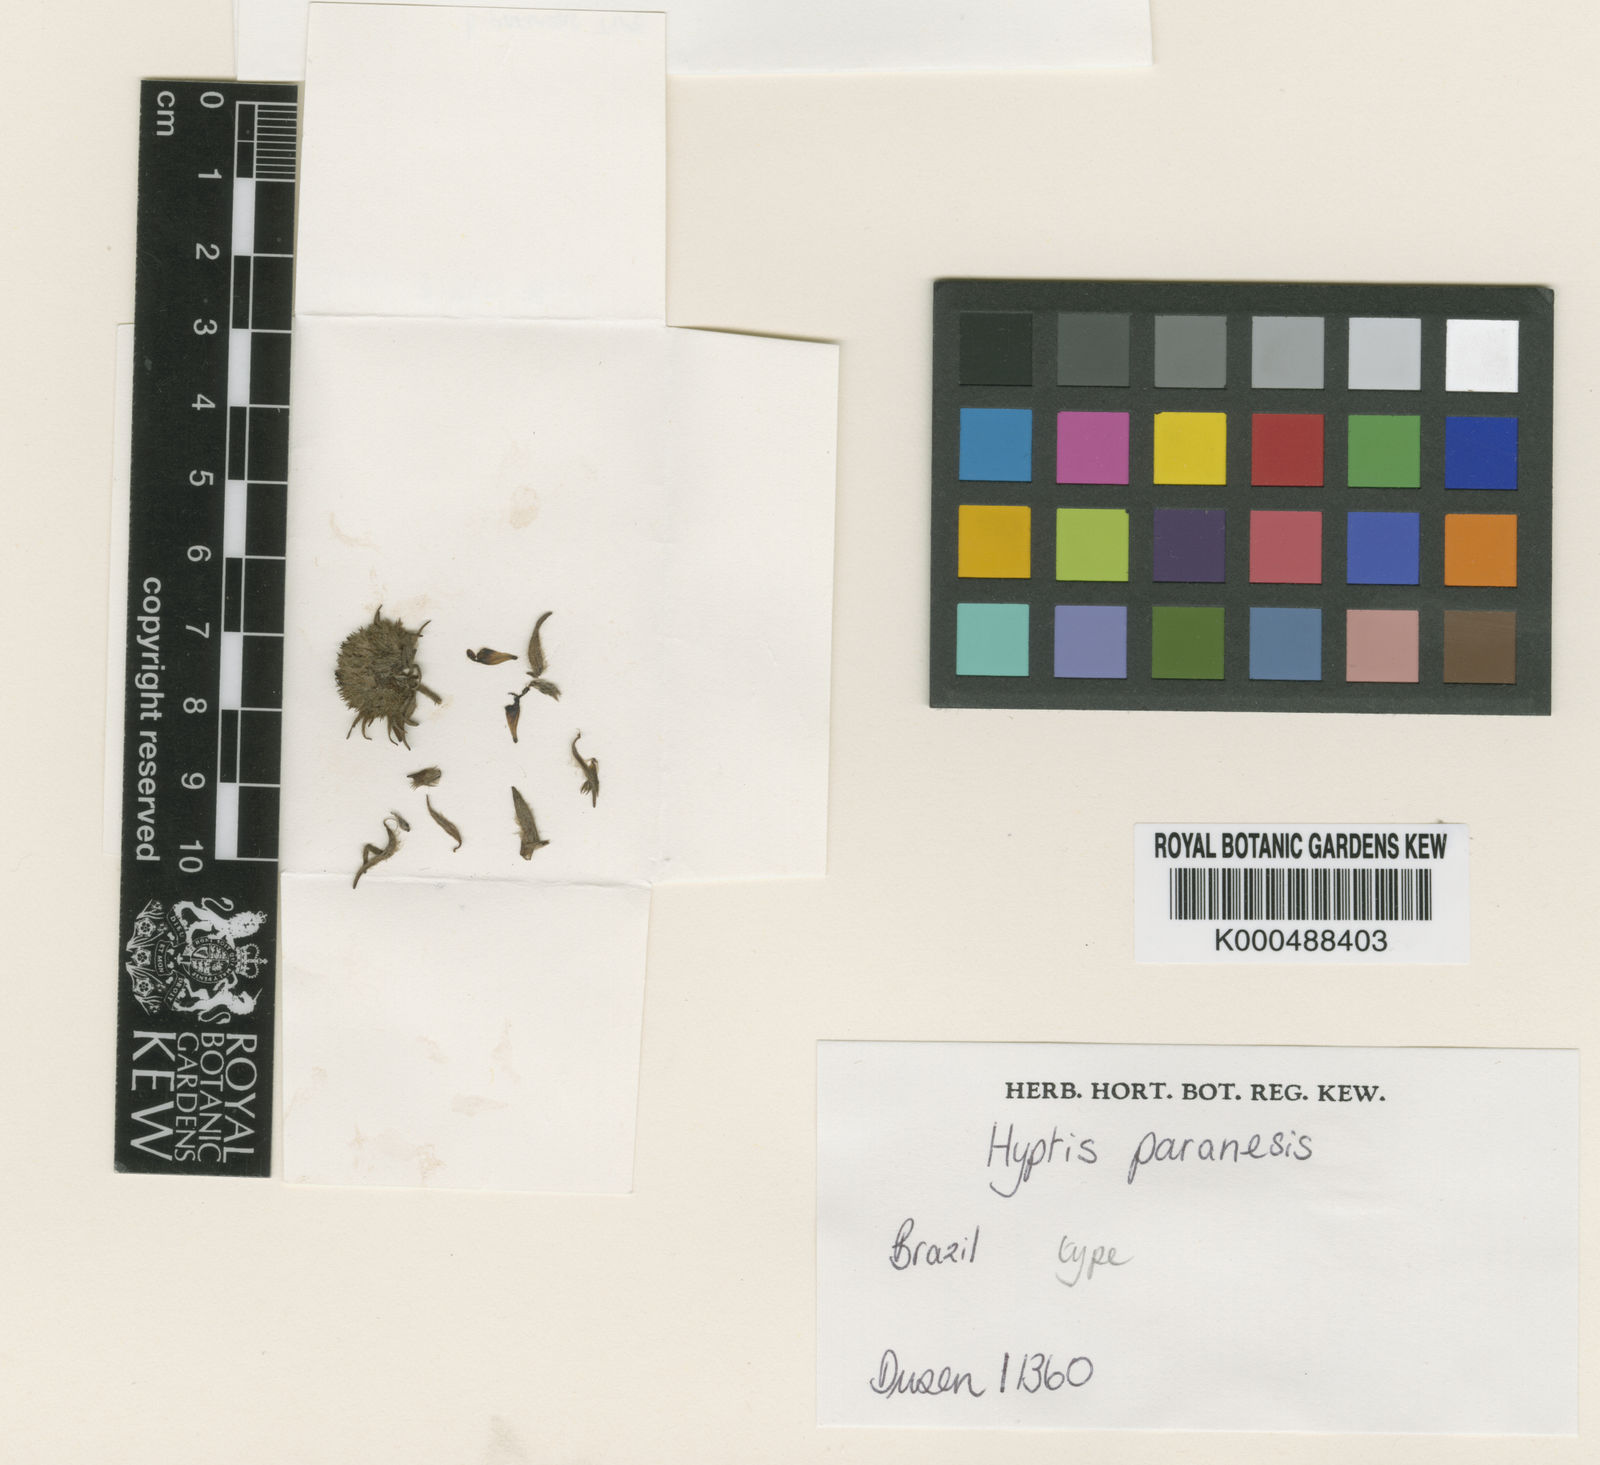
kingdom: Plantae
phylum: Tracheophyta
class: Magnoliopsida
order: Lamiales
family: Lamiaceae
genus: Hyptis
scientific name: Hyptis balansae
